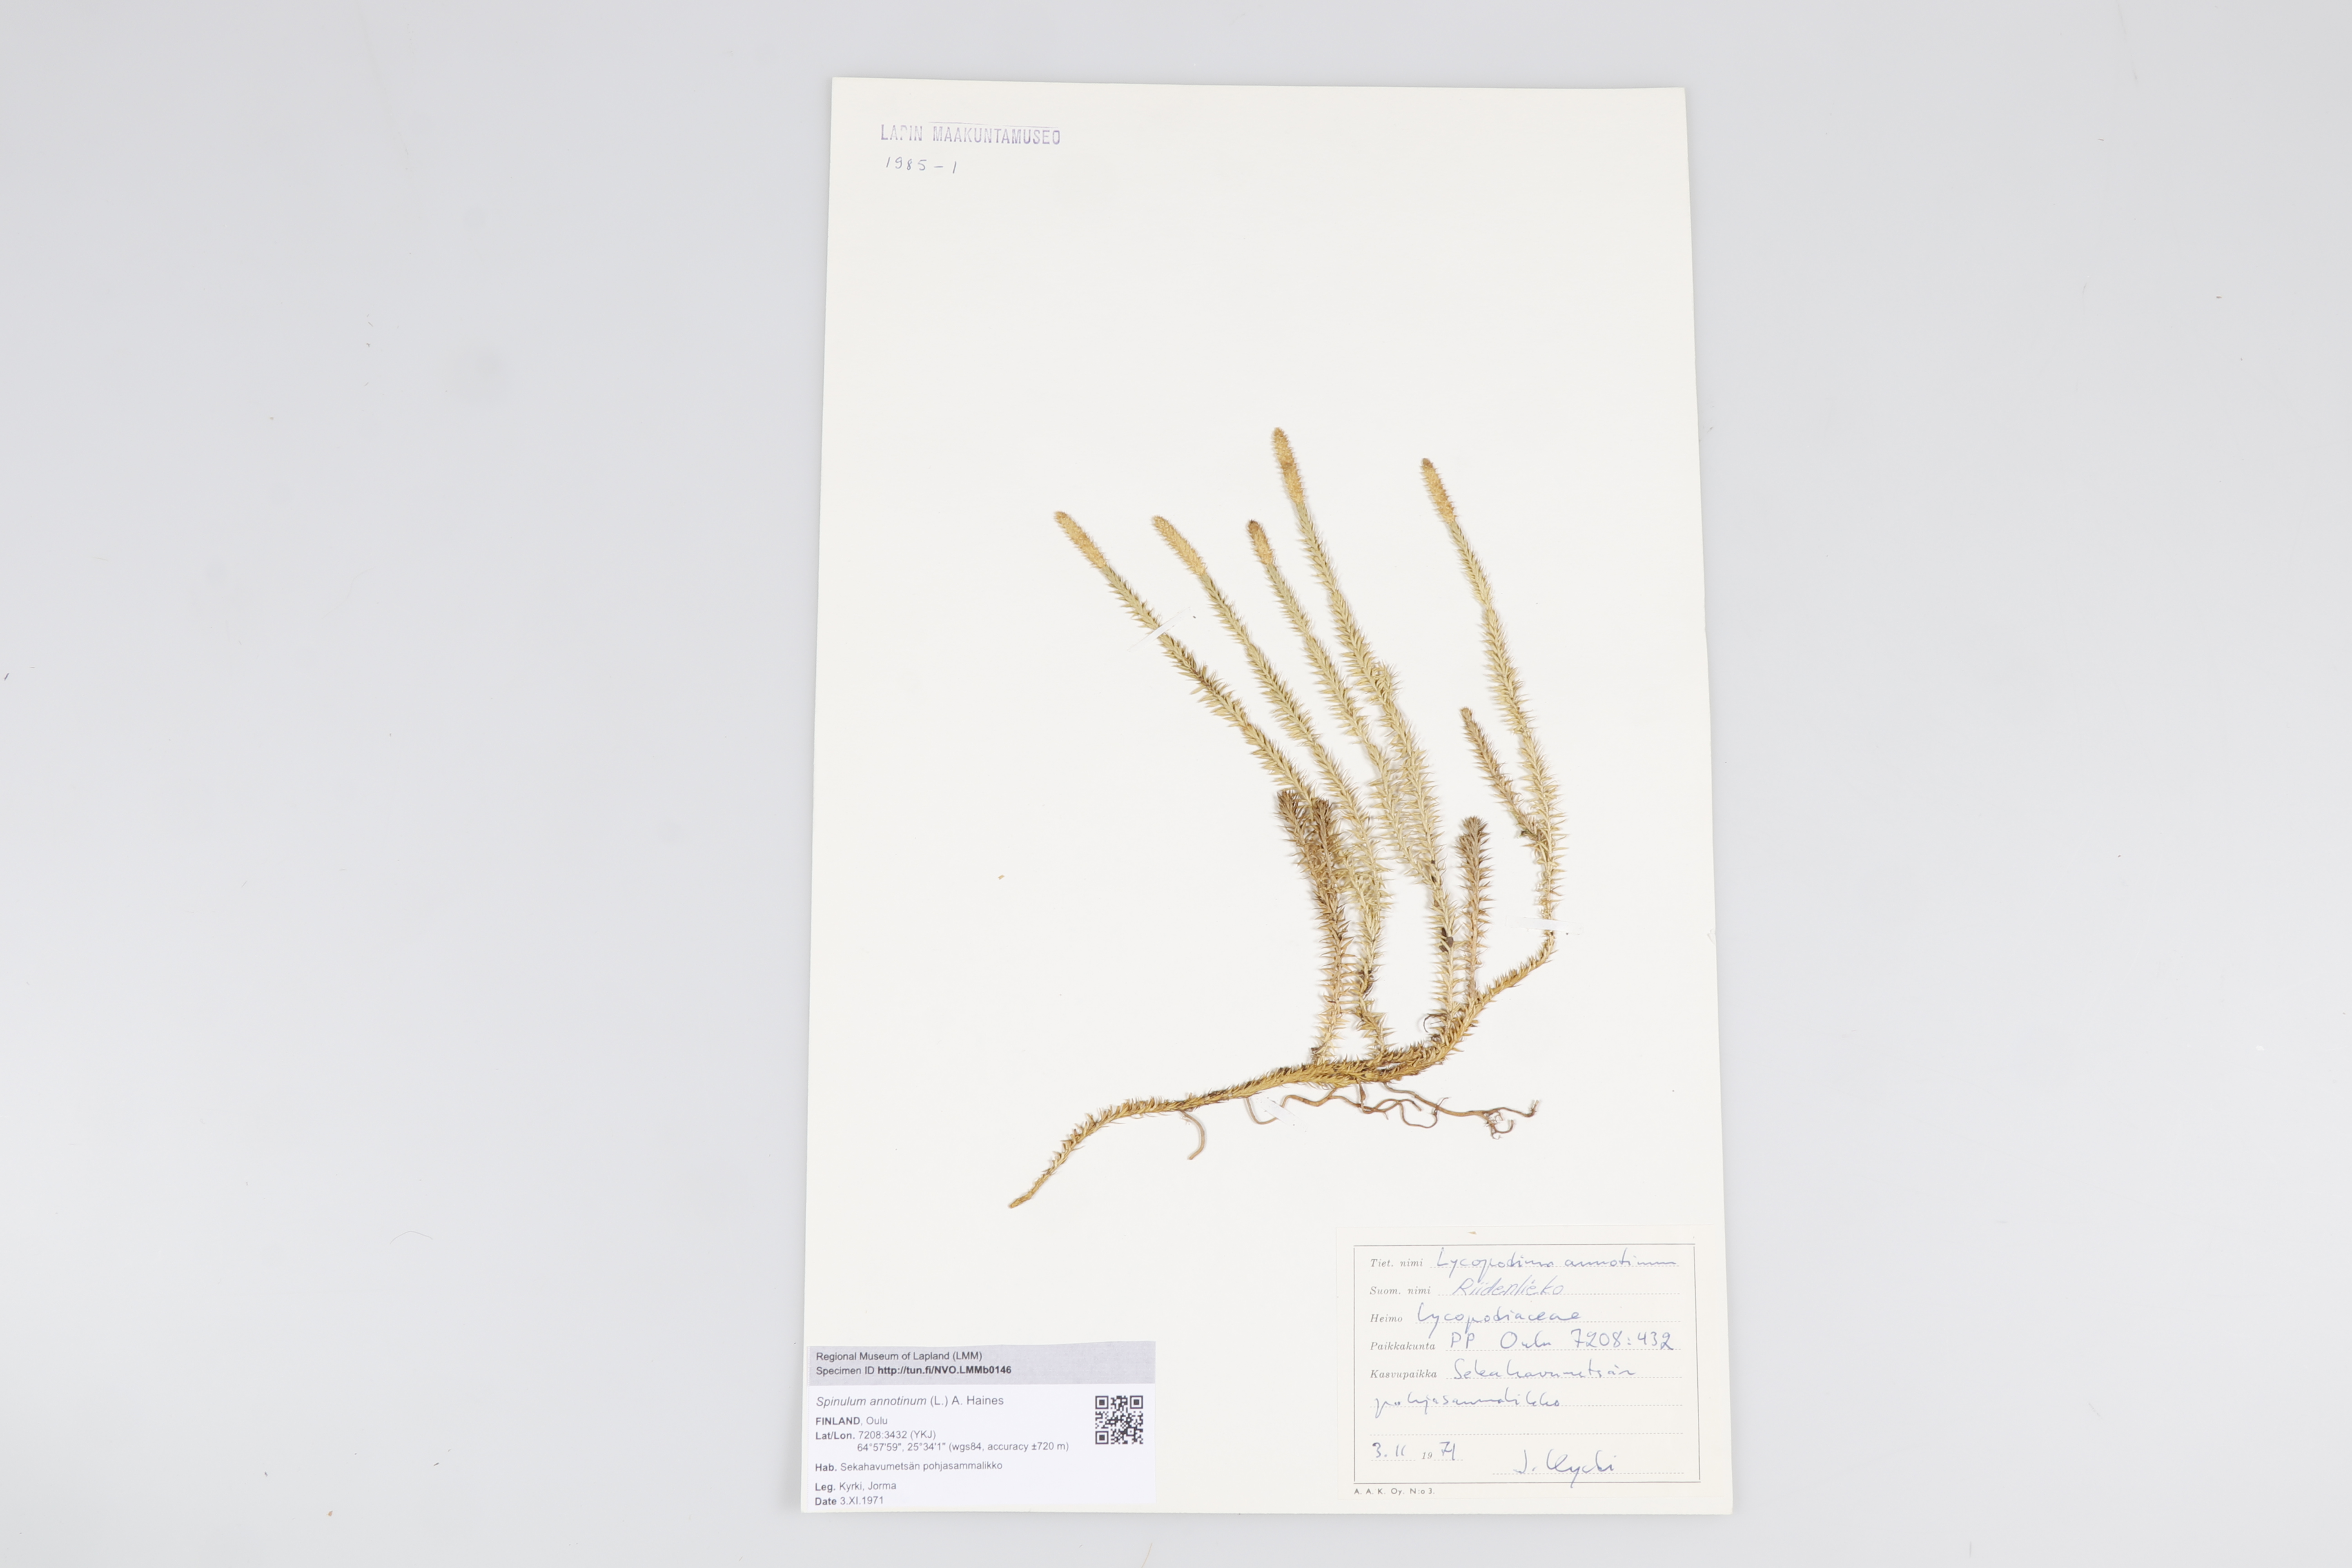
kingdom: Plantae
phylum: Tracheophyta
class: Lycopodiopsida
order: Lycopodiales
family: Lycopodiaceae
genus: Spinulum
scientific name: Spinulum annotinum
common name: Interrupted club-moss
